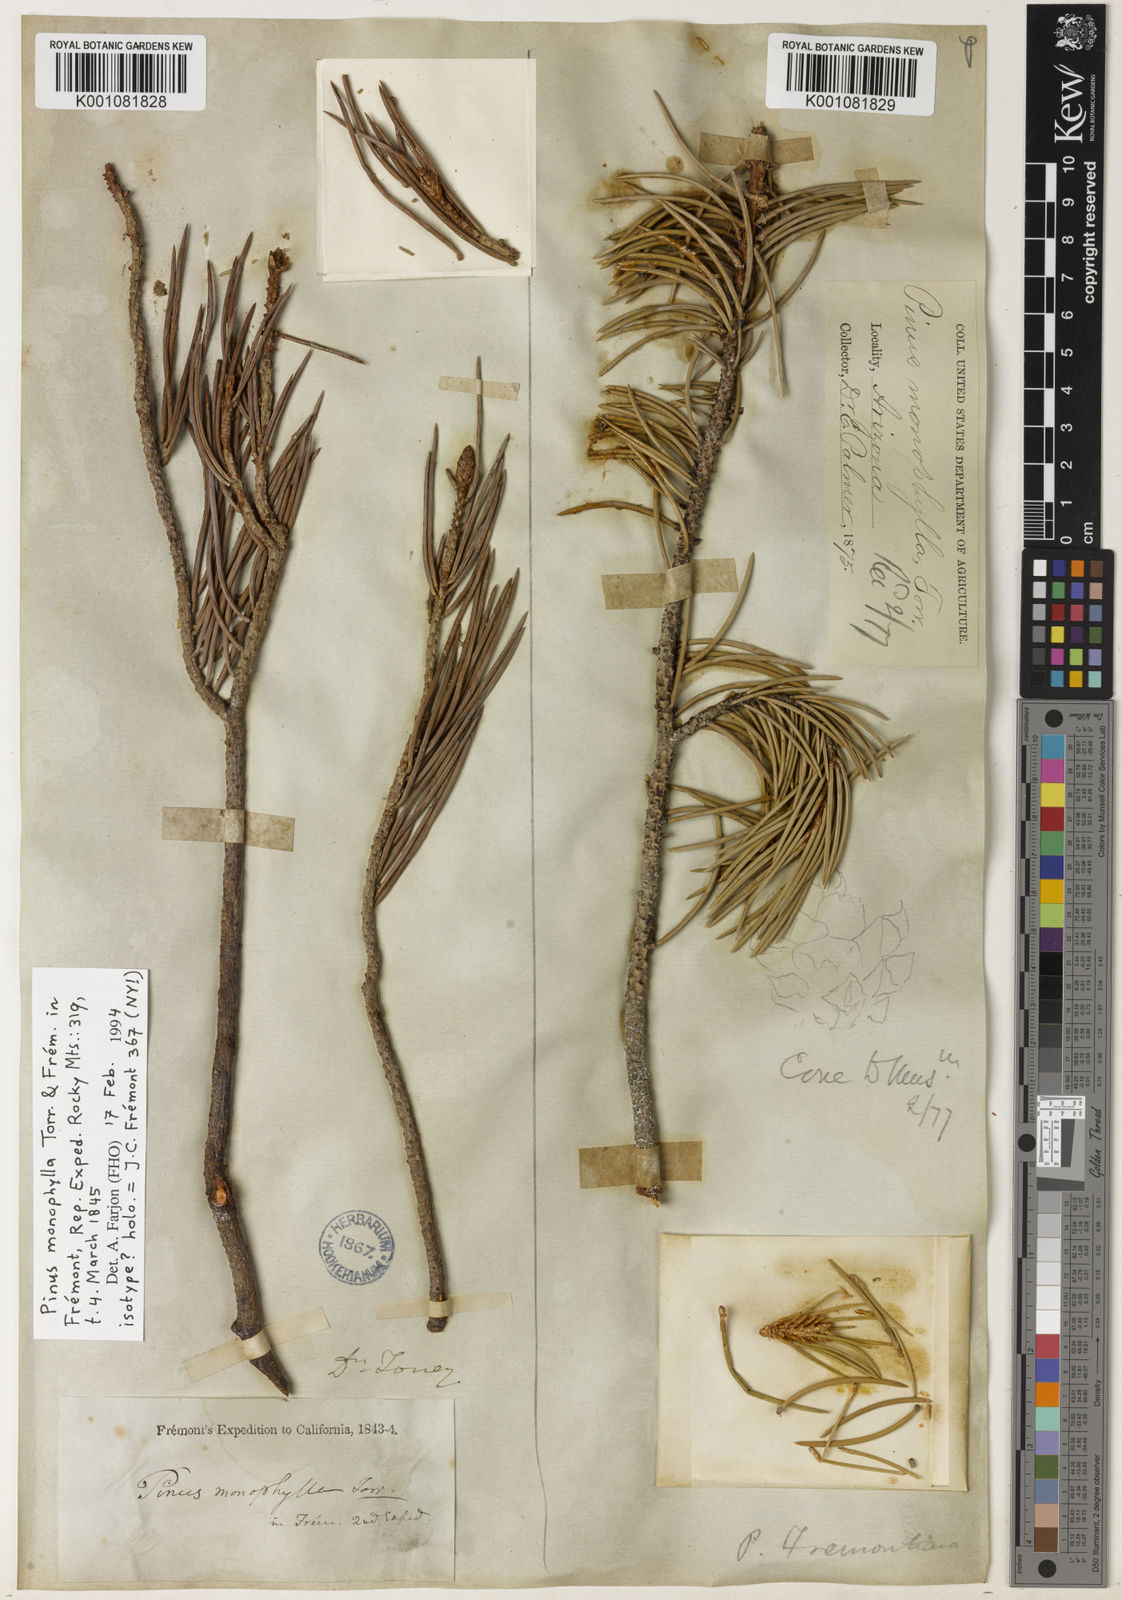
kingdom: Plantae
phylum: Tracheophyta
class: Pinopsida
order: Pinales
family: Pinaceae
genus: Pinus
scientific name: Pinus
